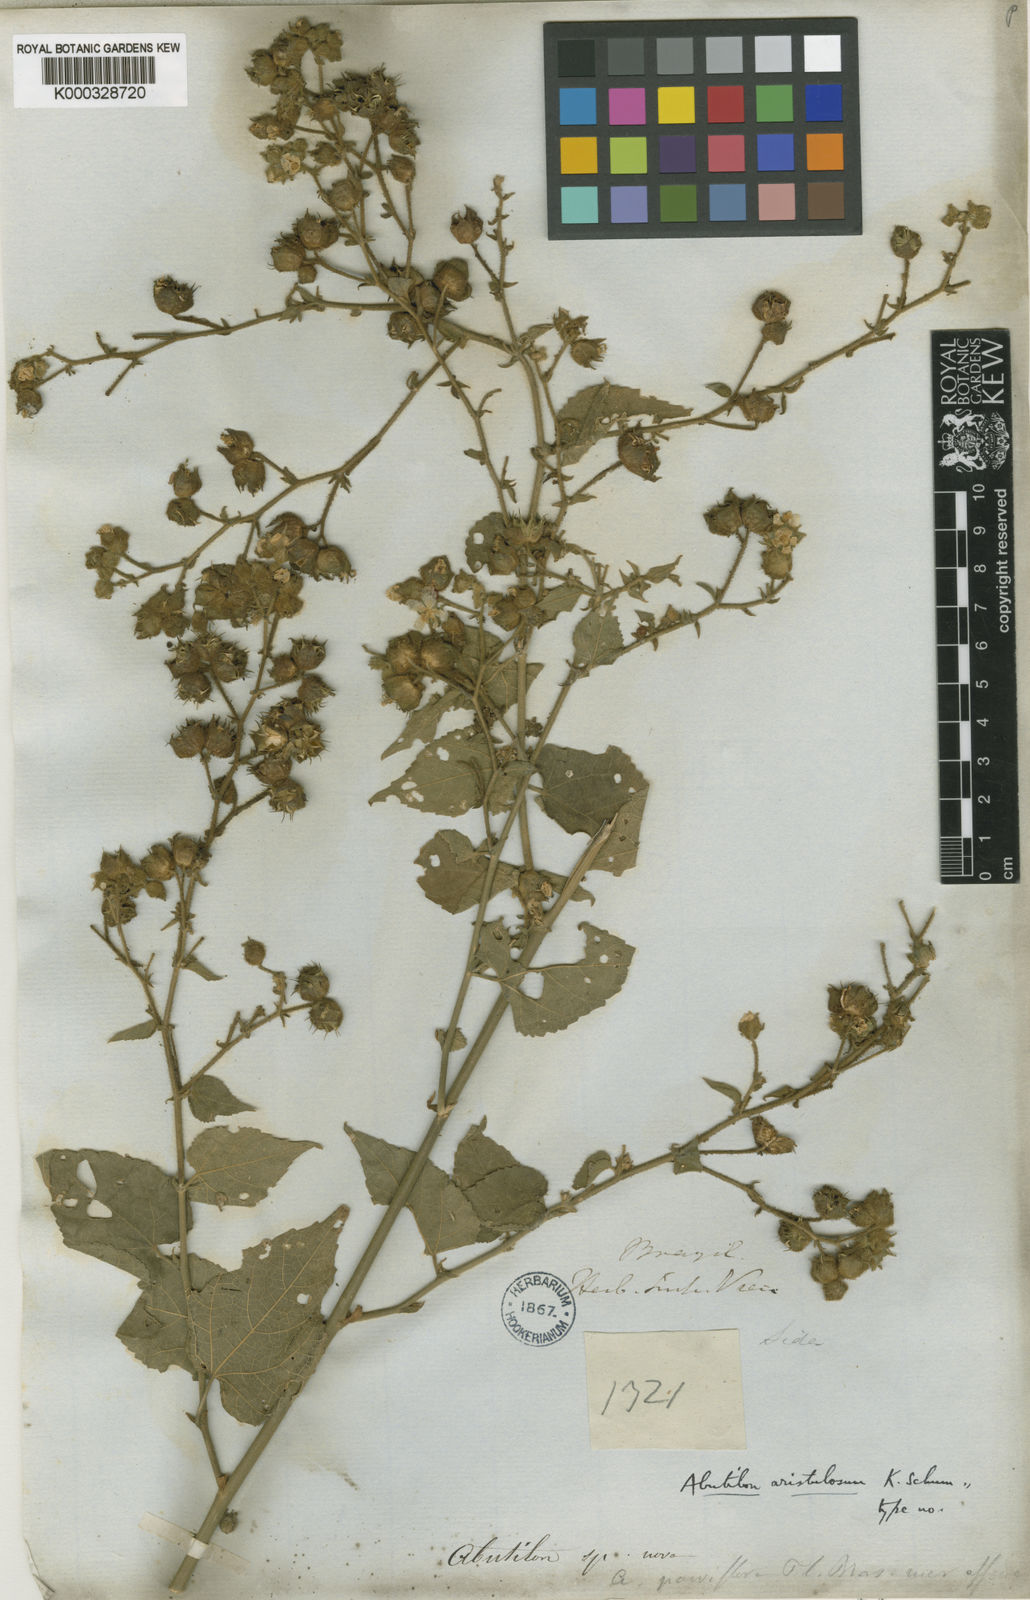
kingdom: Plantae
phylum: Tracheophyta
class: Magnoliopsida
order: Malvales
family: Malvaceae
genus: Pseudabutilon
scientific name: Pseudabutilon aristulosum
